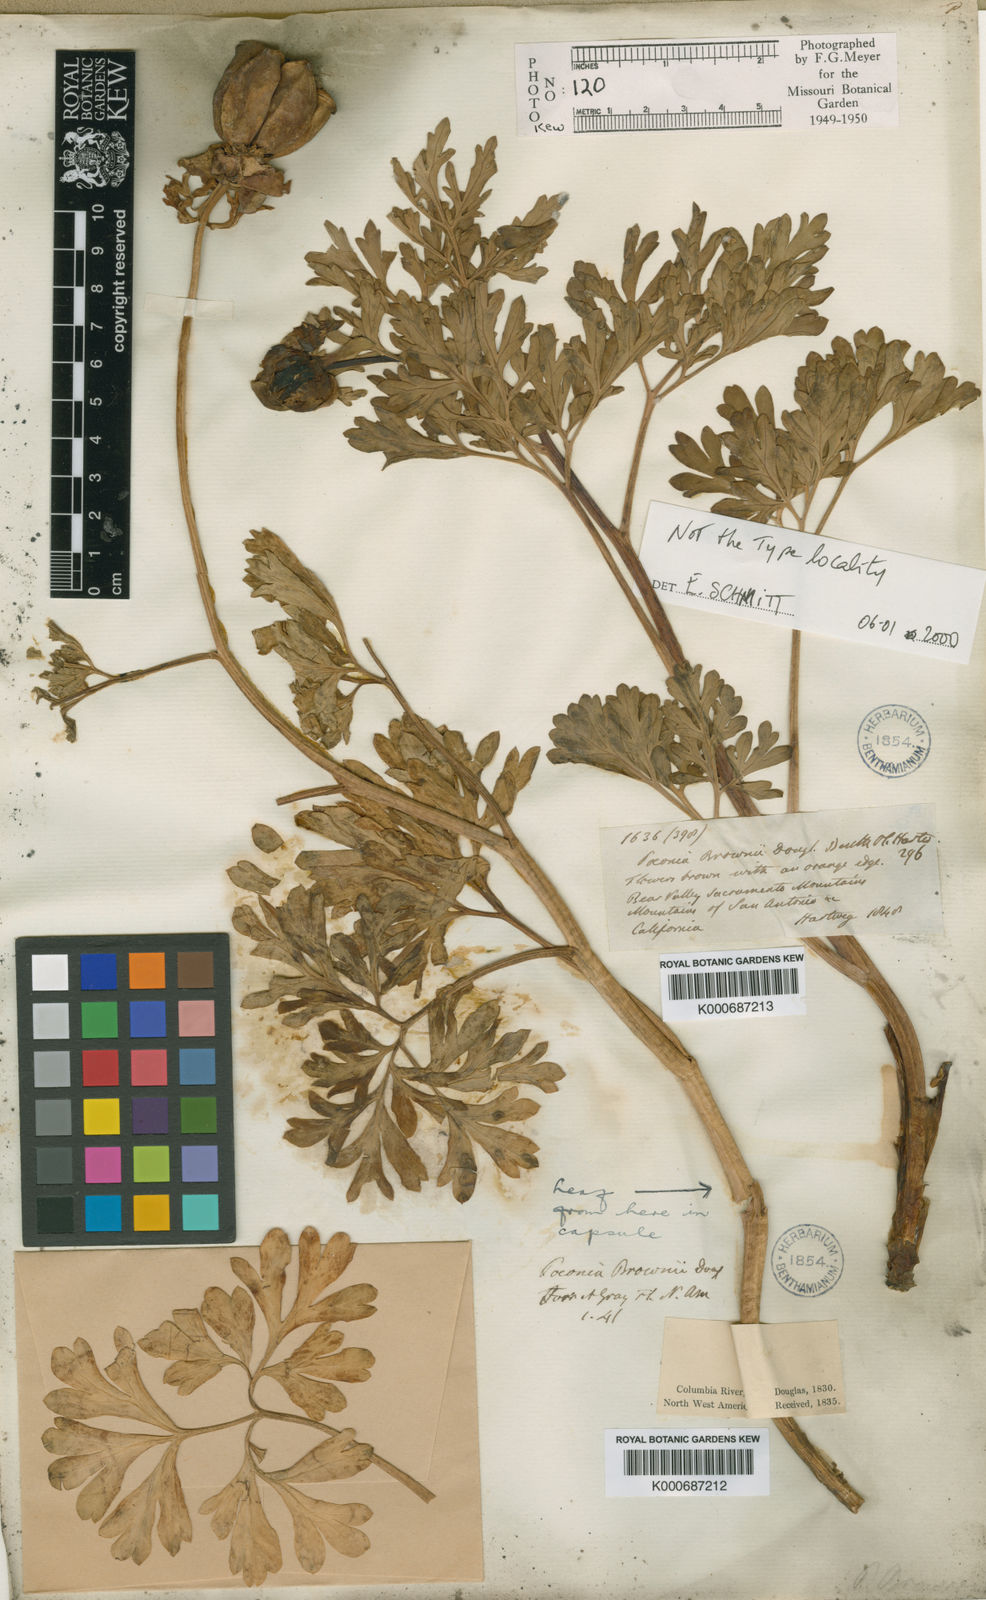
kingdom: Plantae
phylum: Tracheophyta
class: Magnoliopsida
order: Saxifragales
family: Paeoniaceae
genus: Paeonia
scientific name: Paeonia brownii
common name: Brown's peony
